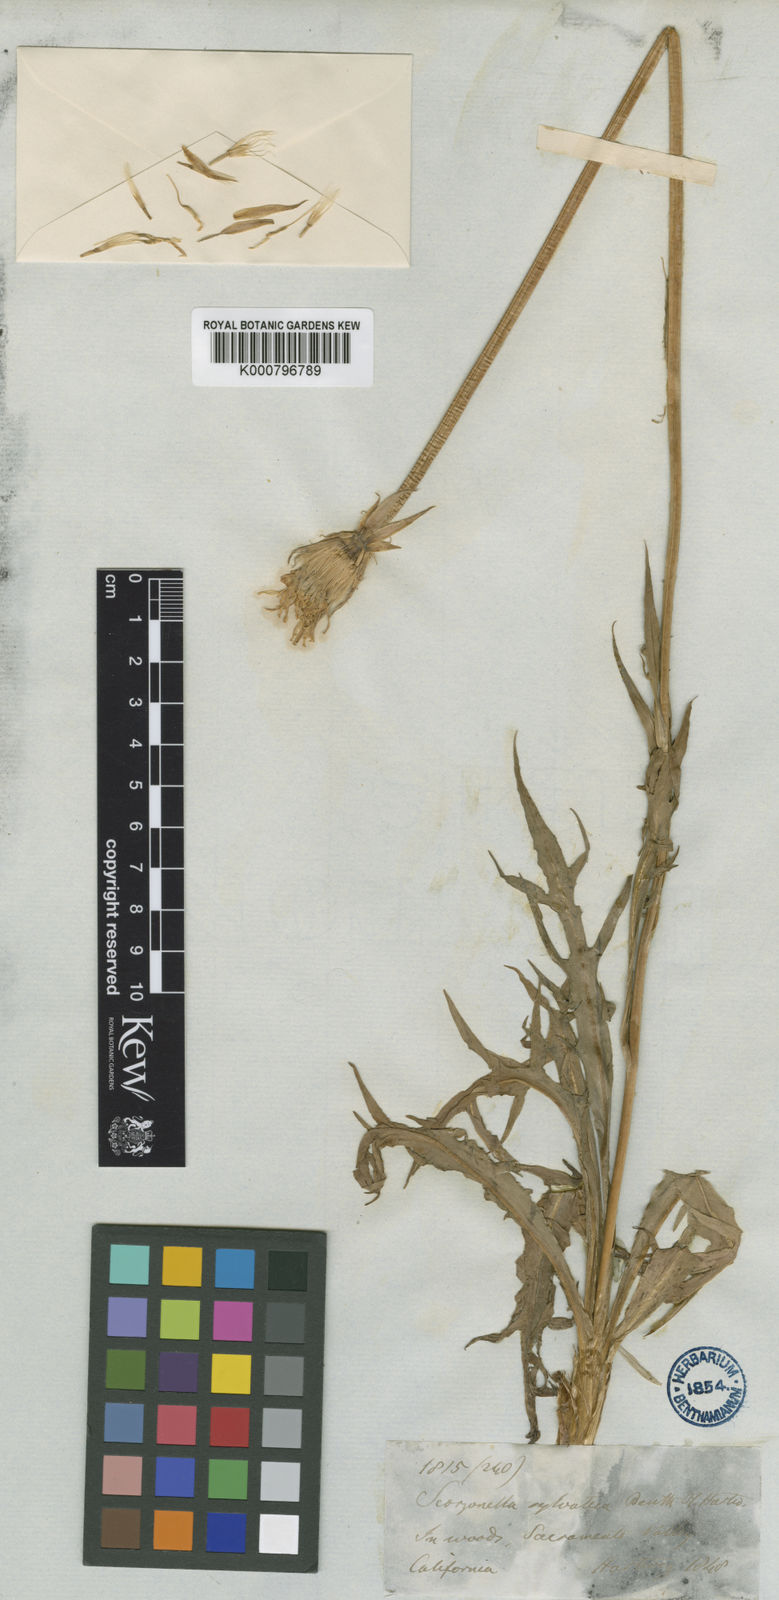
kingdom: Plantae
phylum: Tracheophyta
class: Magnoliopsida
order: Asterales
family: Asteraceae
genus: Microseris
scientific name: Microseris sylvatica
